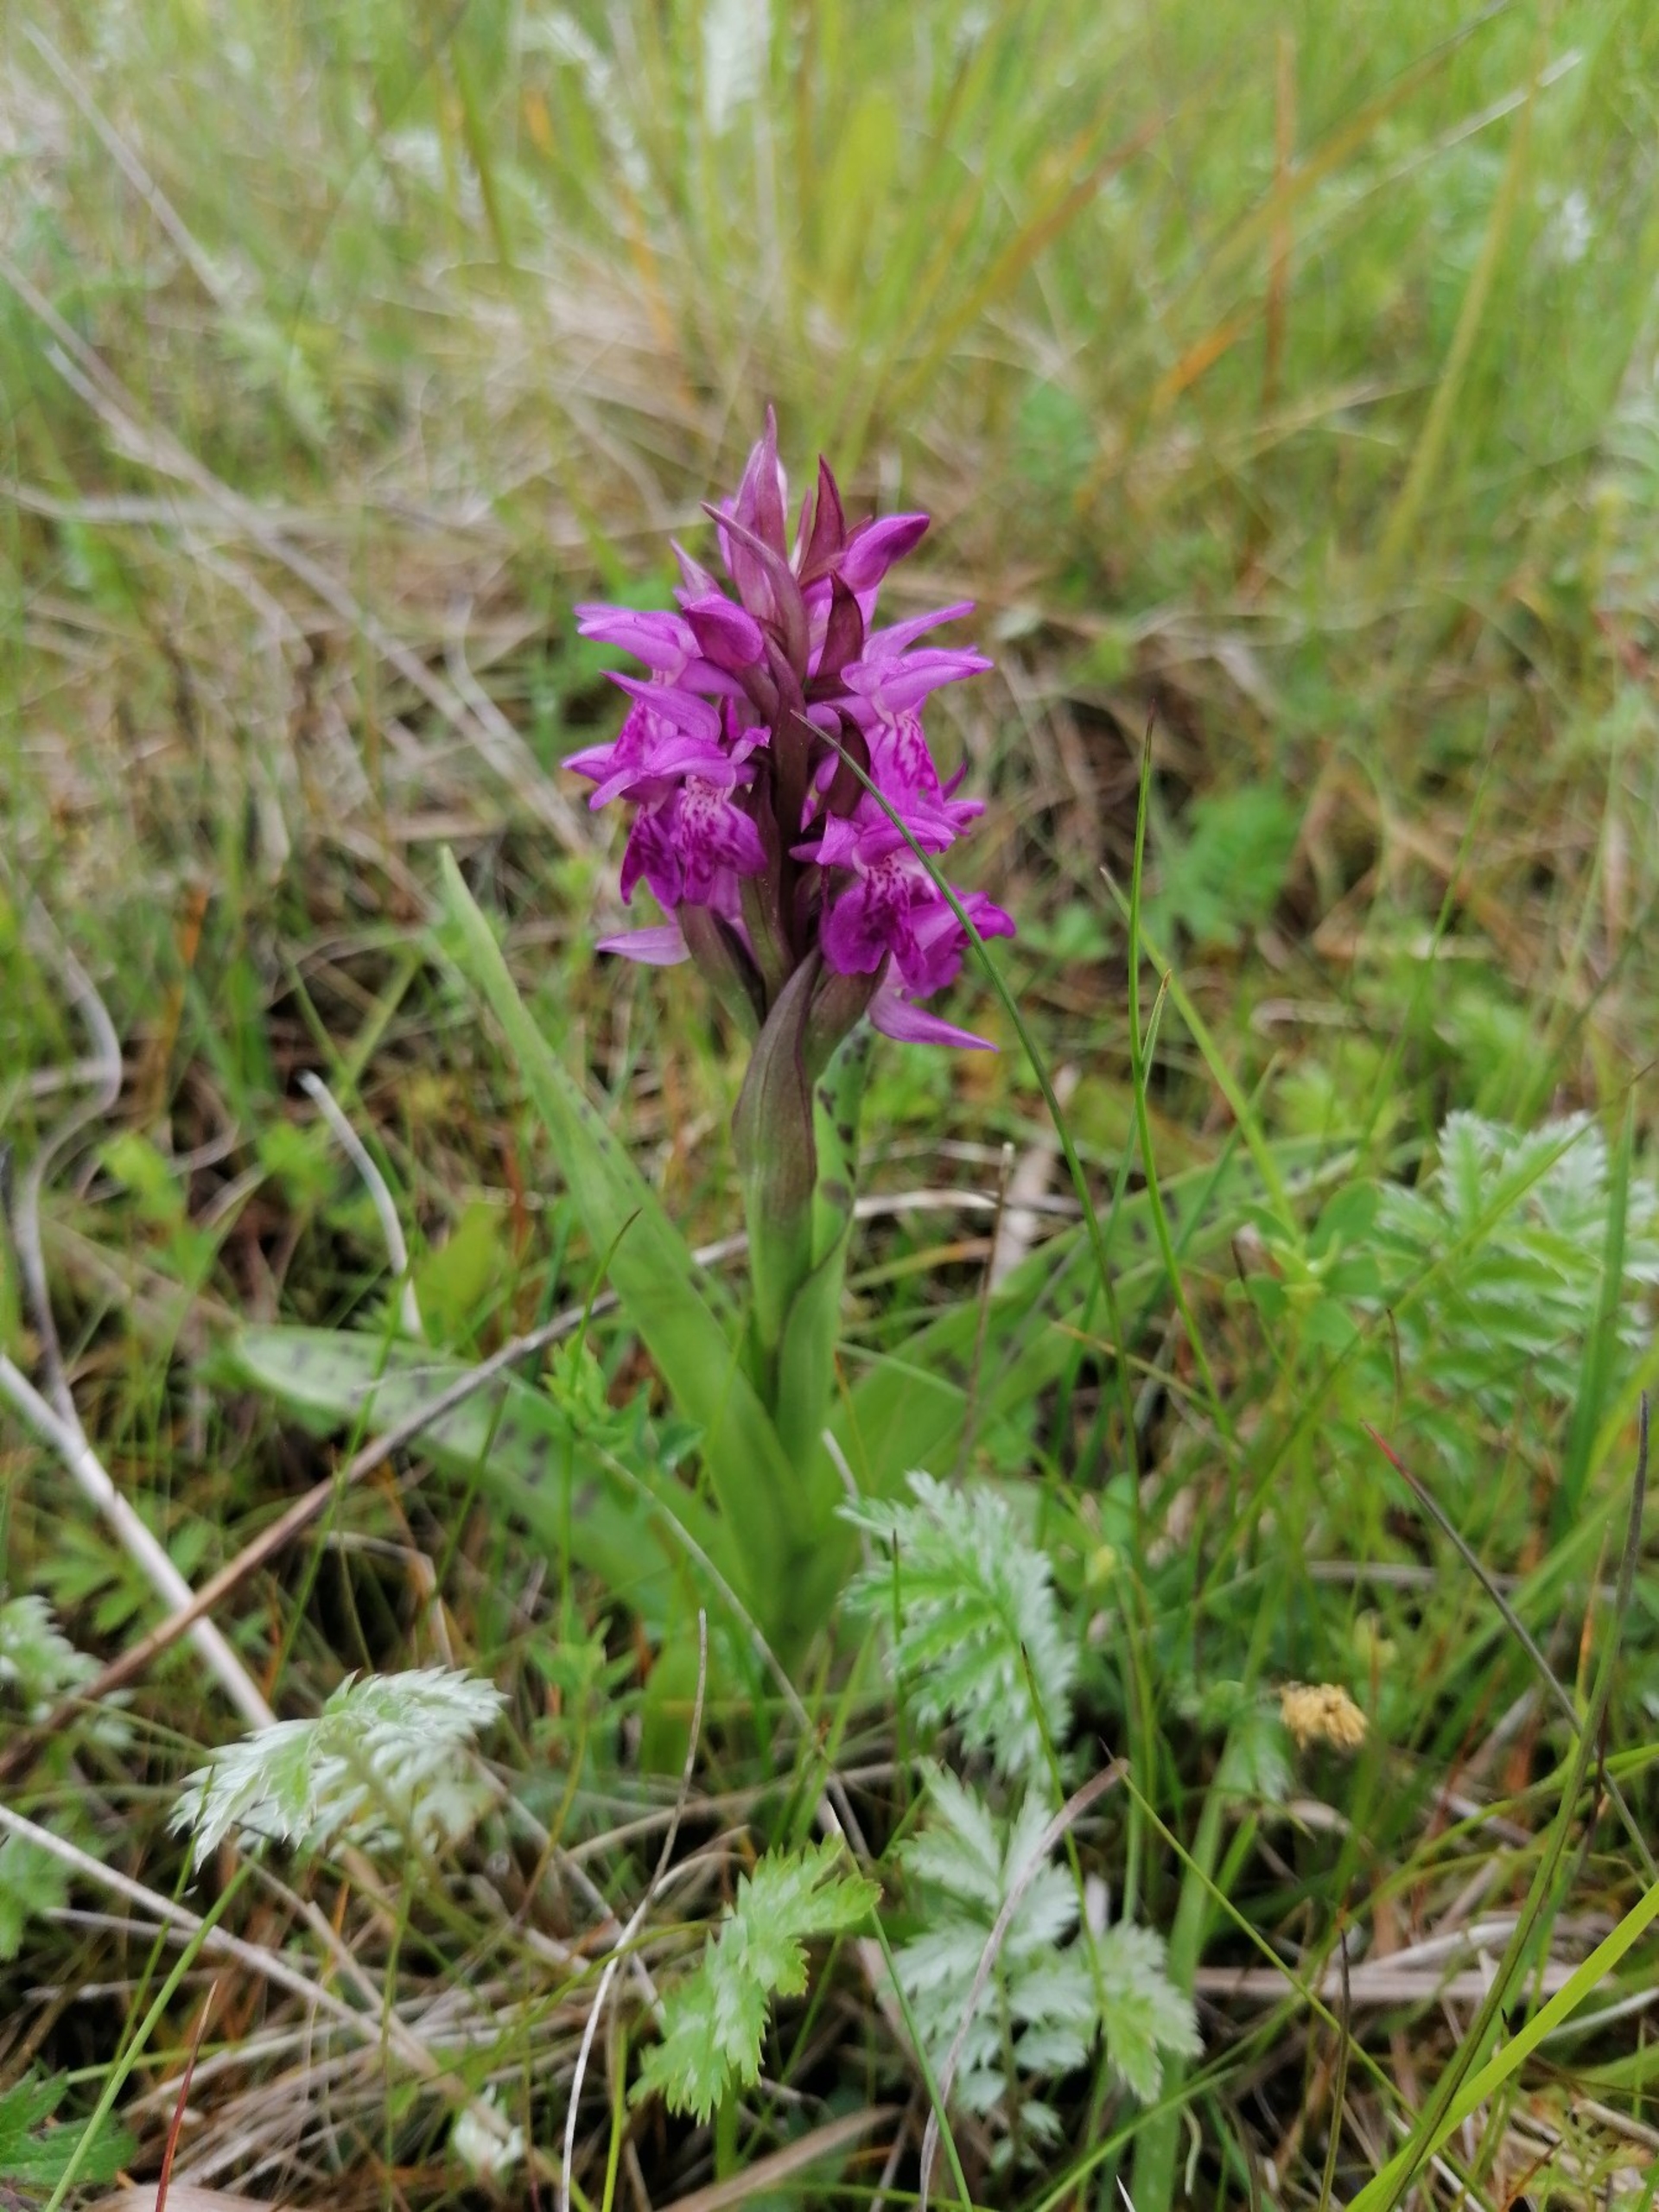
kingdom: Plantae
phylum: Tracheophyta
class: Liliopsida
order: Asparagales
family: Orchidaceae
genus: Dactylorhiza
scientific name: Dactylorhiza majalis
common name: Maj-gøgeurt
